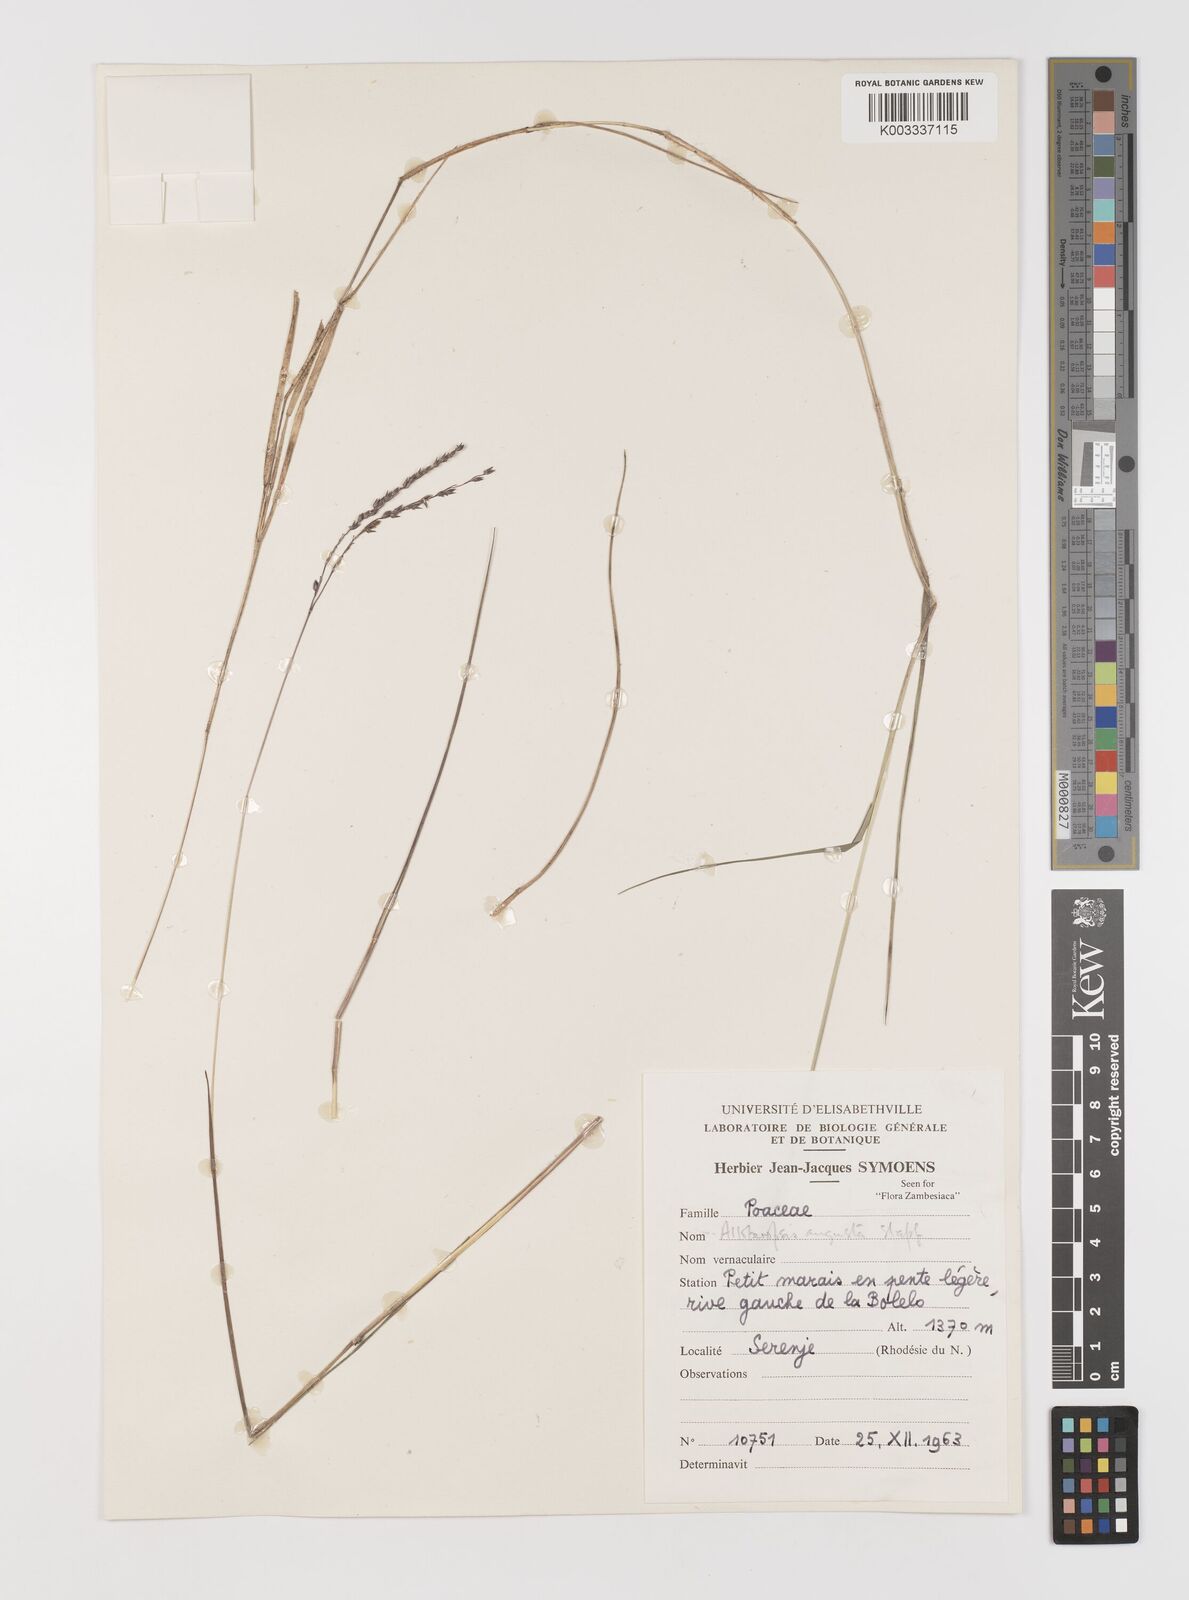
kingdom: Plantae
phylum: Tracheophyta
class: Liliopsida
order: Poales
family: Poaceae
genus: Alloteropsis
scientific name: Alloteropsis angusta
